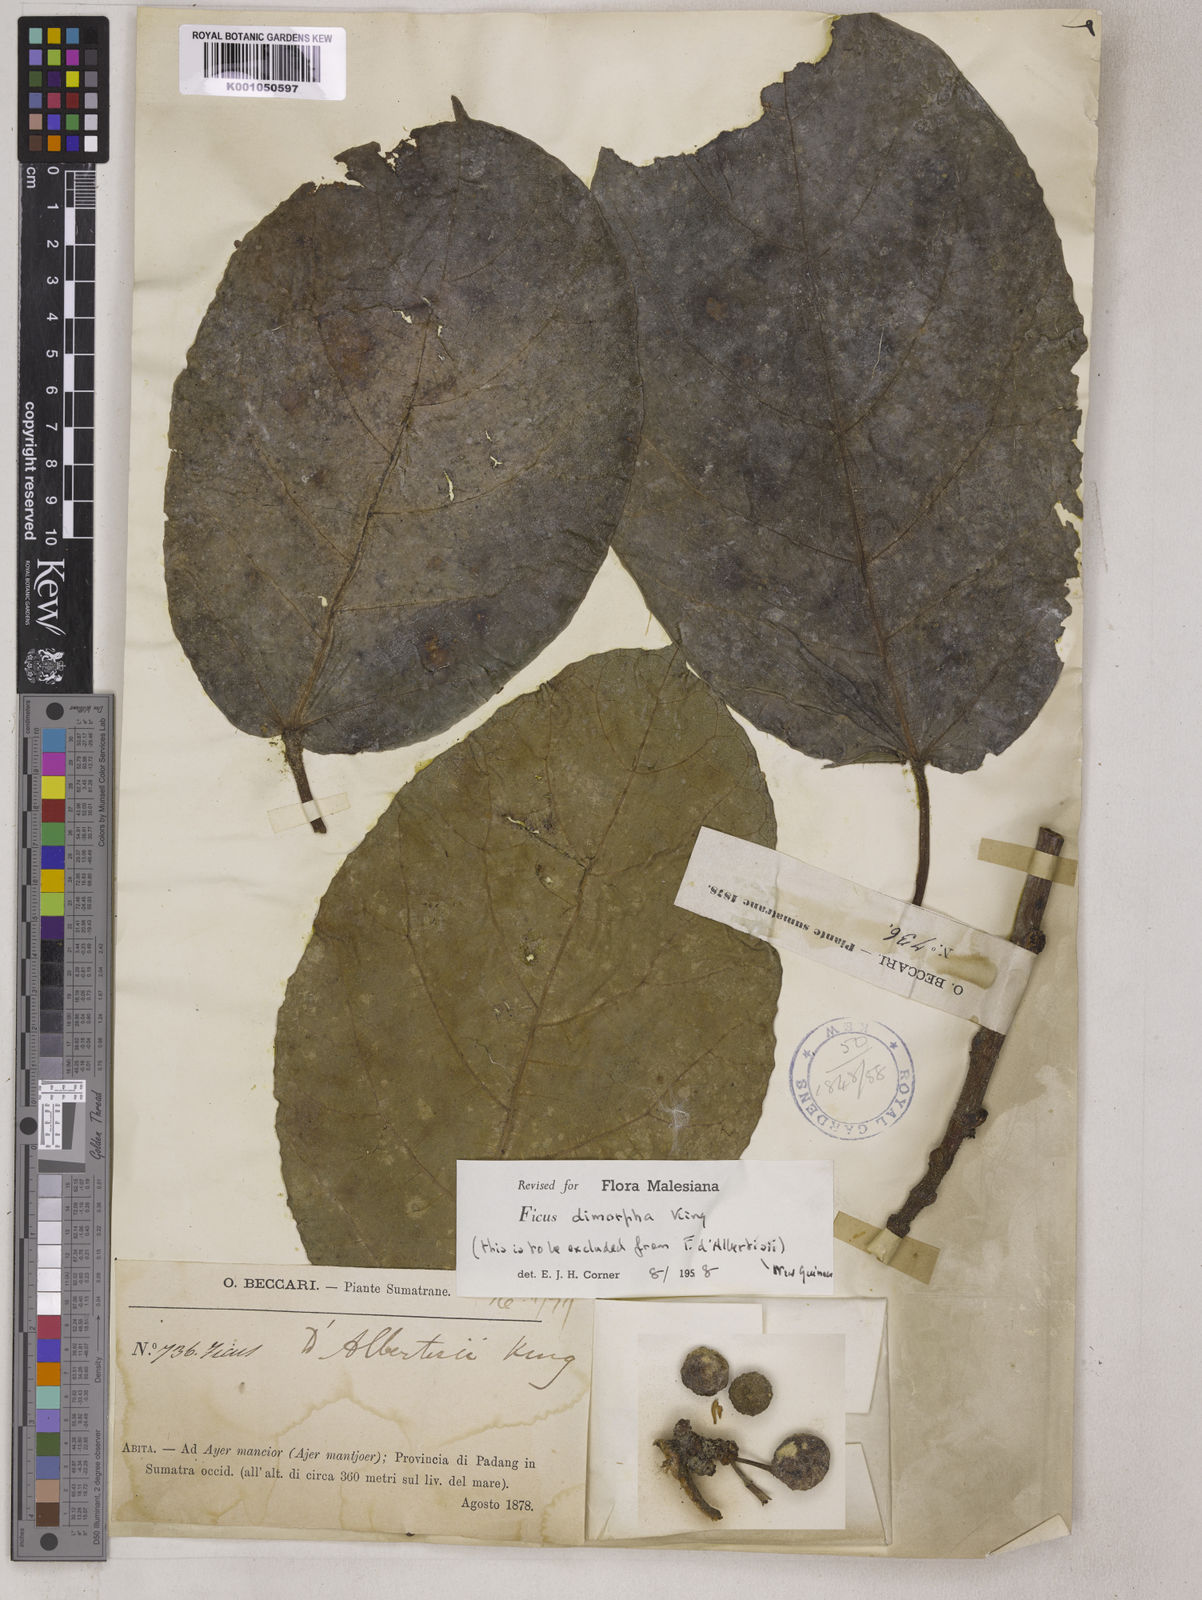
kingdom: Plantae
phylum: Tracheophyta
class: Magnoliopsida
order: Rosales
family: Moraceae
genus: Ficus
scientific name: Ficus dimorpha
